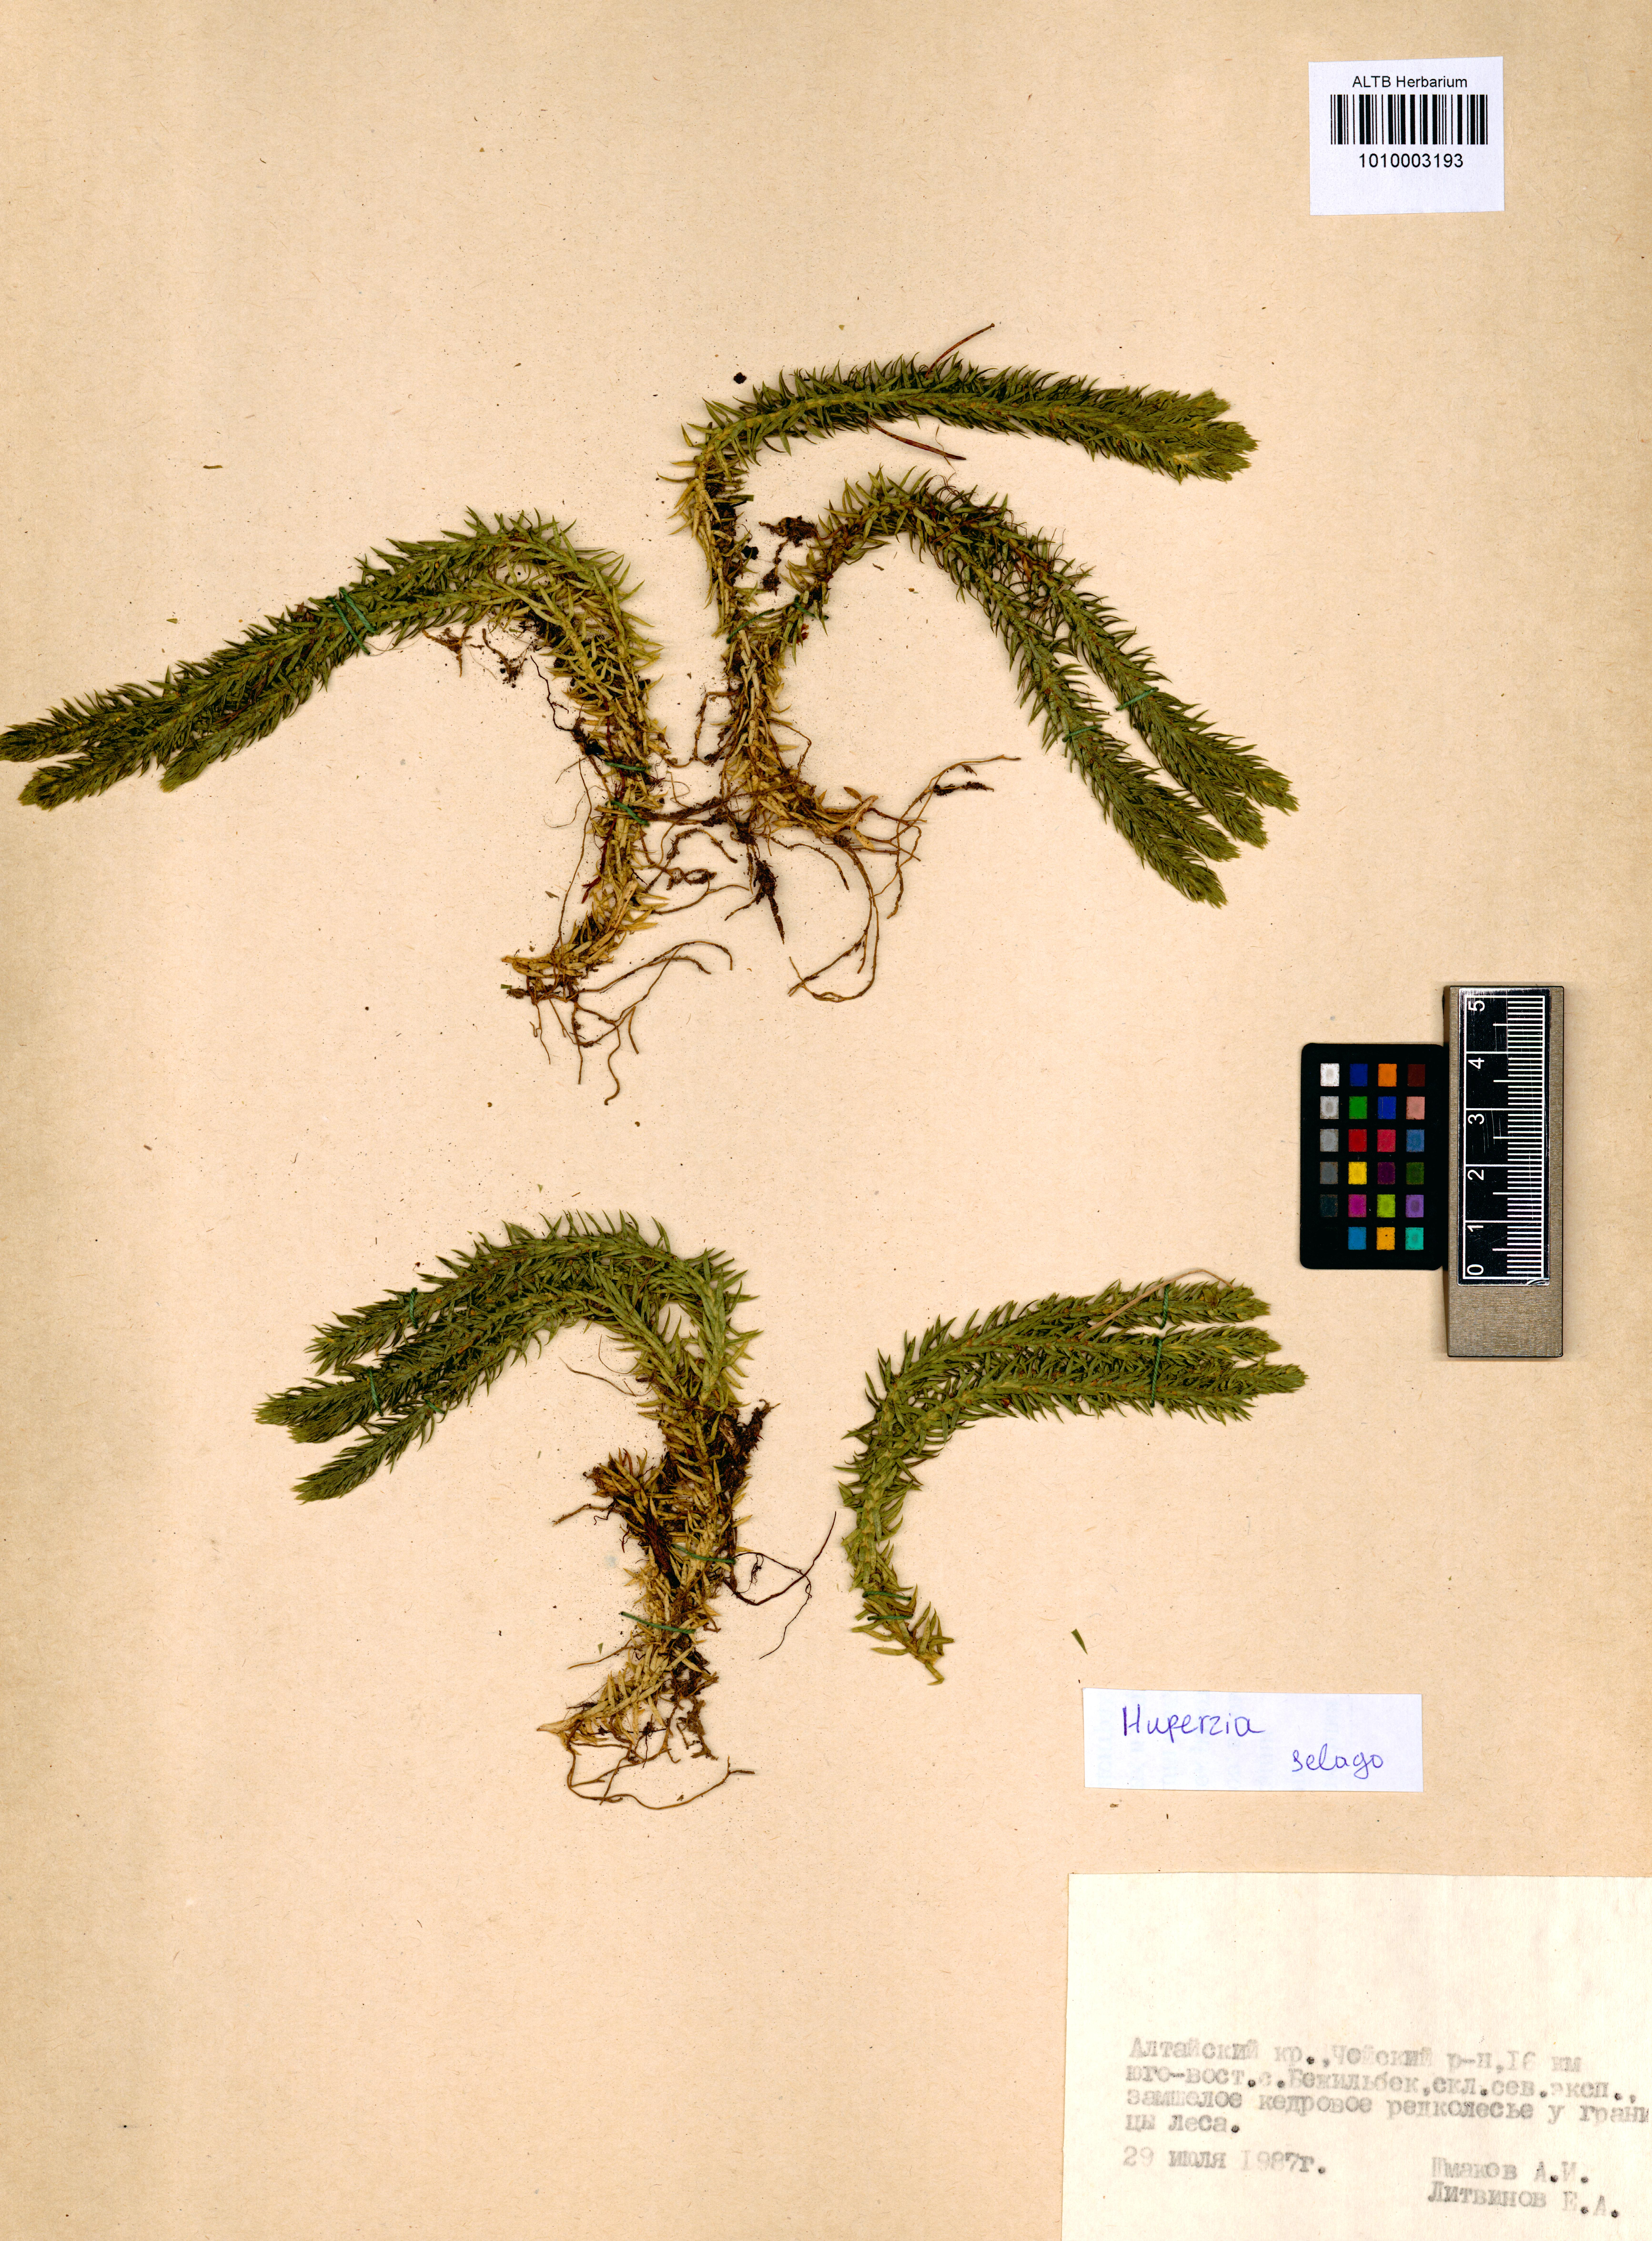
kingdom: Plantae
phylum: Tracheophyta
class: Lycopodiopsida
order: Lycopodiales
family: Lycopodiaceae
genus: Huperzia
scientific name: Huperzia selago
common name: Northern firmoss
